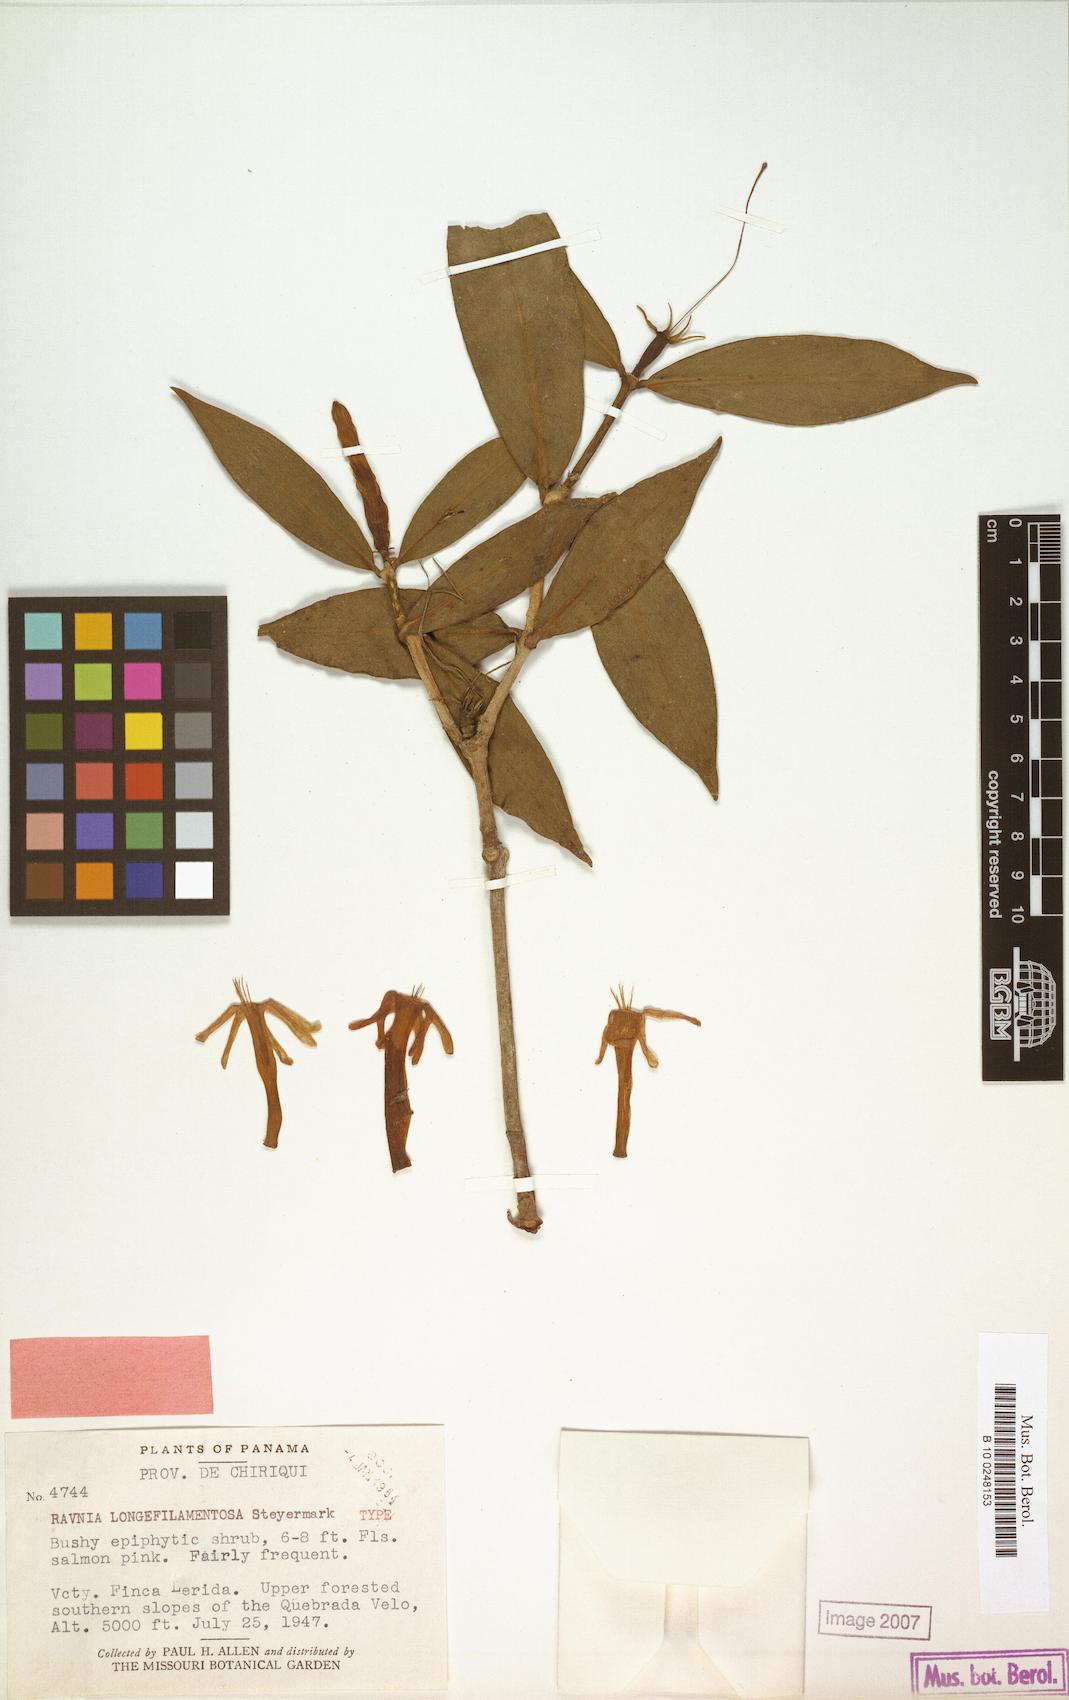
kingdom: Plantae
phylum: Tracheophyta
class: Magnoliopsida
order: Gentianales
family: Rubiaceae
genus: Hillia
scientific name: Hillia longifilamentosa
